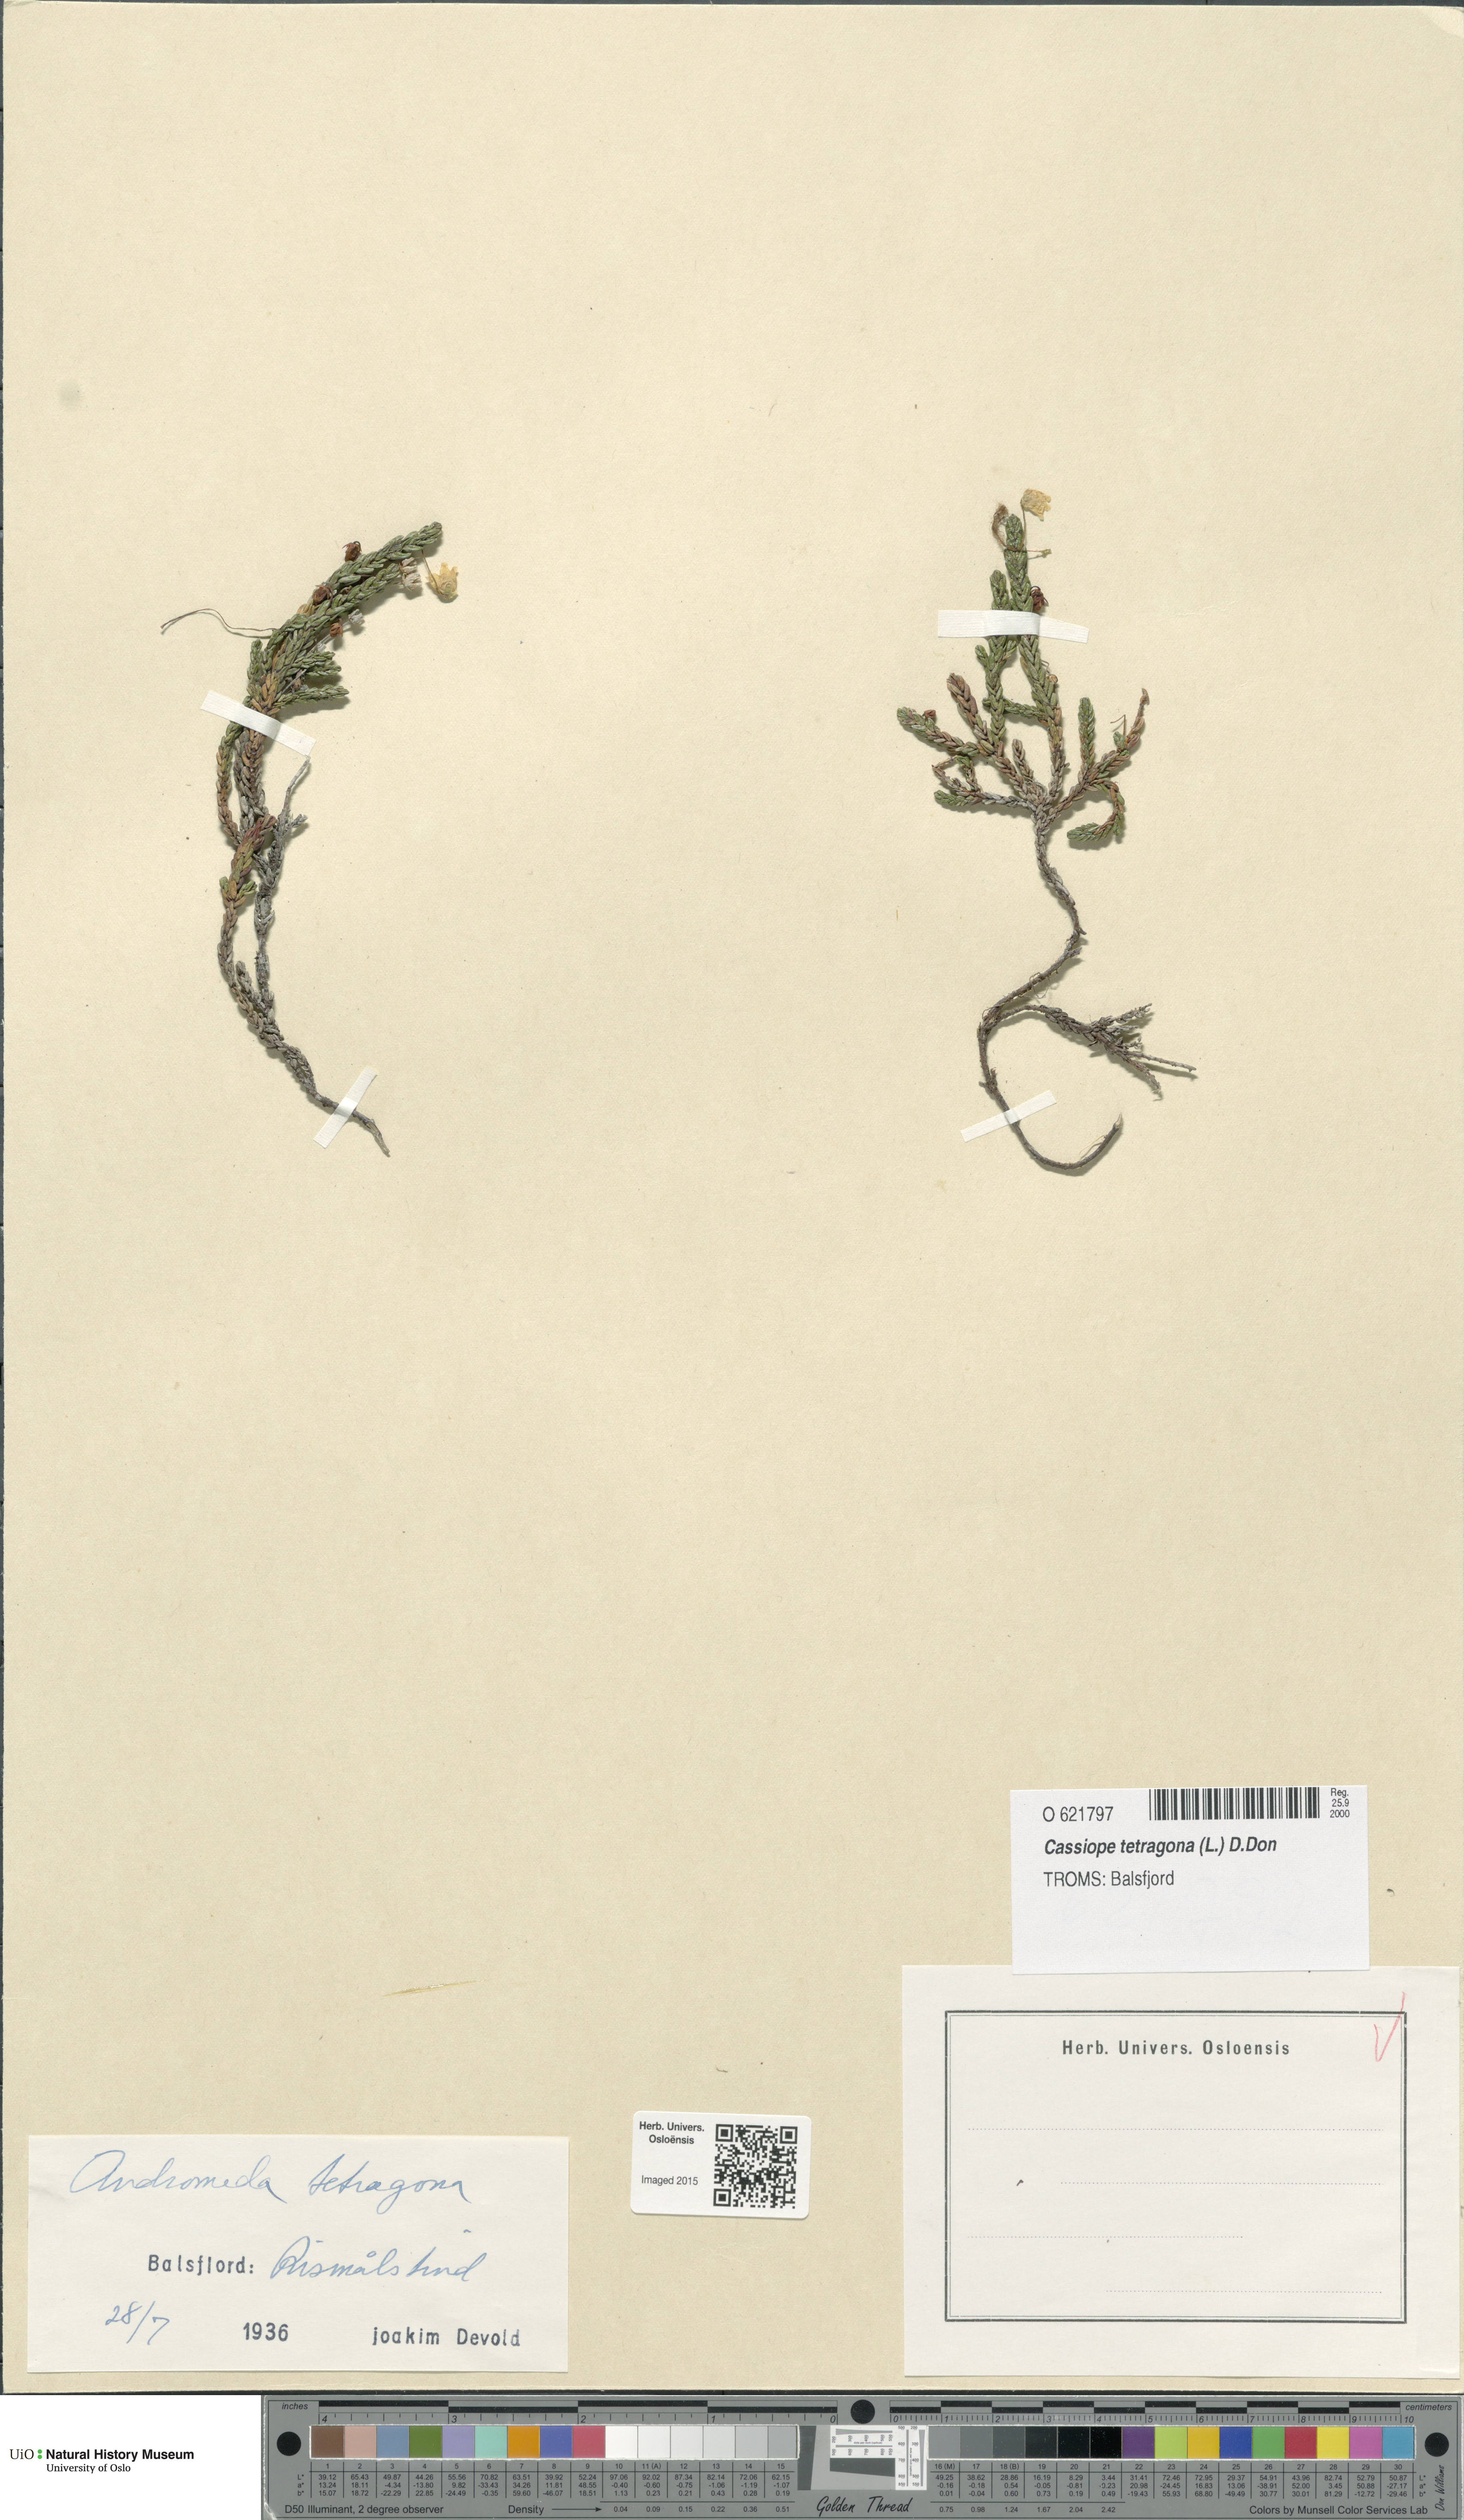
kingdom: Plantae
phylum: Tracheophyta
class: Magnoliopsida
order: Ericales
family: Ericaceae
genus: Cassiope
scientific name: Cassiope tetragona
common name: Arctic bell heather
